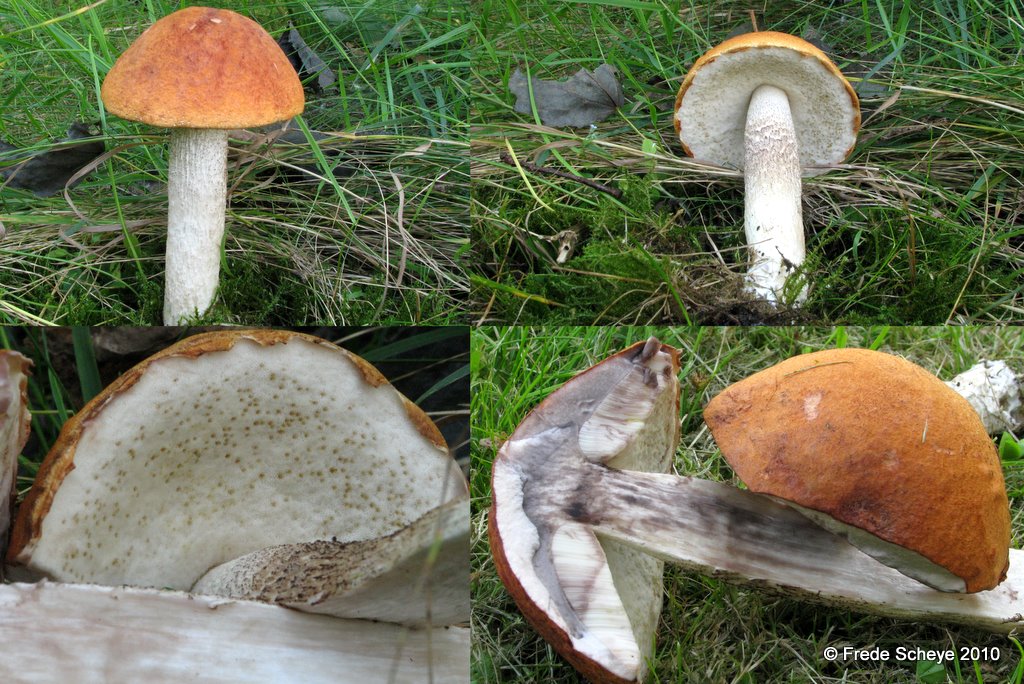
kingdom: Fungi
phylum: Basidiomycota
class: Agaricomycetes
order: Boletales
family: Boletaceae
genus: Leccinum
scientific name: Leccinum albostipitatum
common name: aspe-skælrørhat
